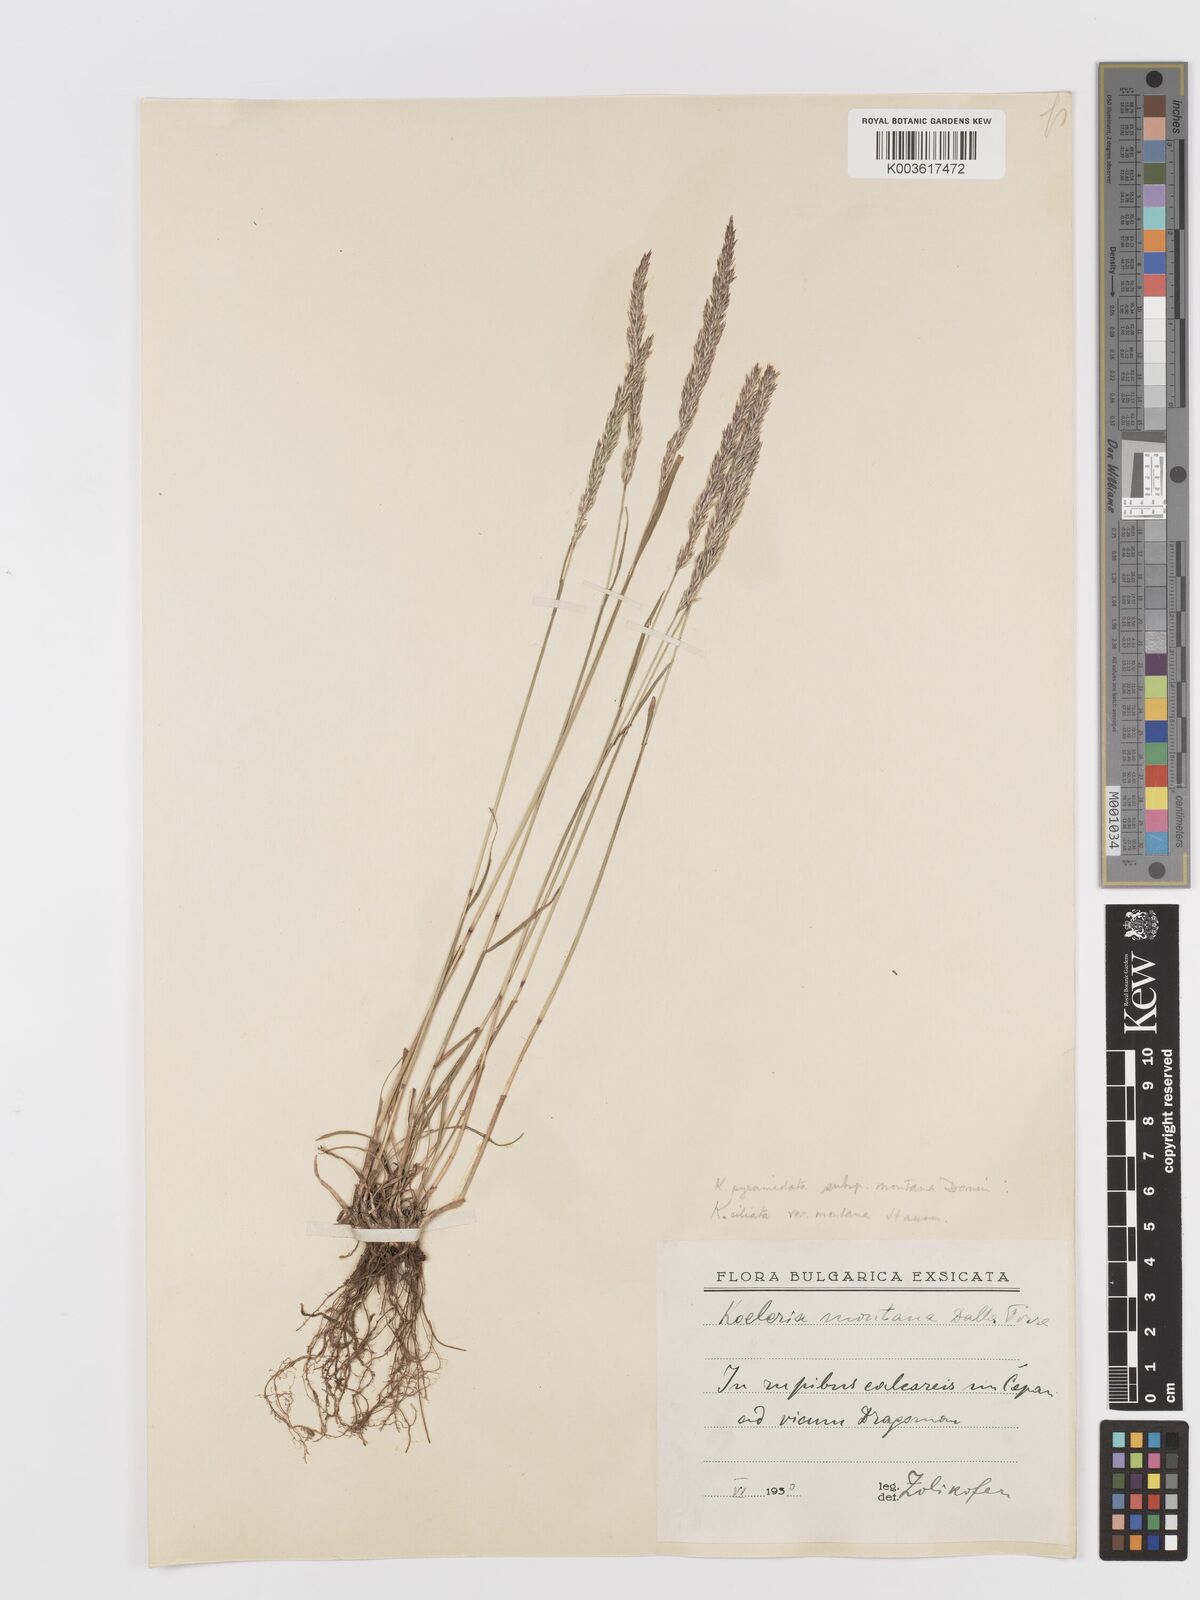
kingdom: Plantae
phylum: Tracheophyta
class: Liliopsida
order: Poales
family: Poaceae
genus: Koeleria
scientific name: Koeleria pyramidata
